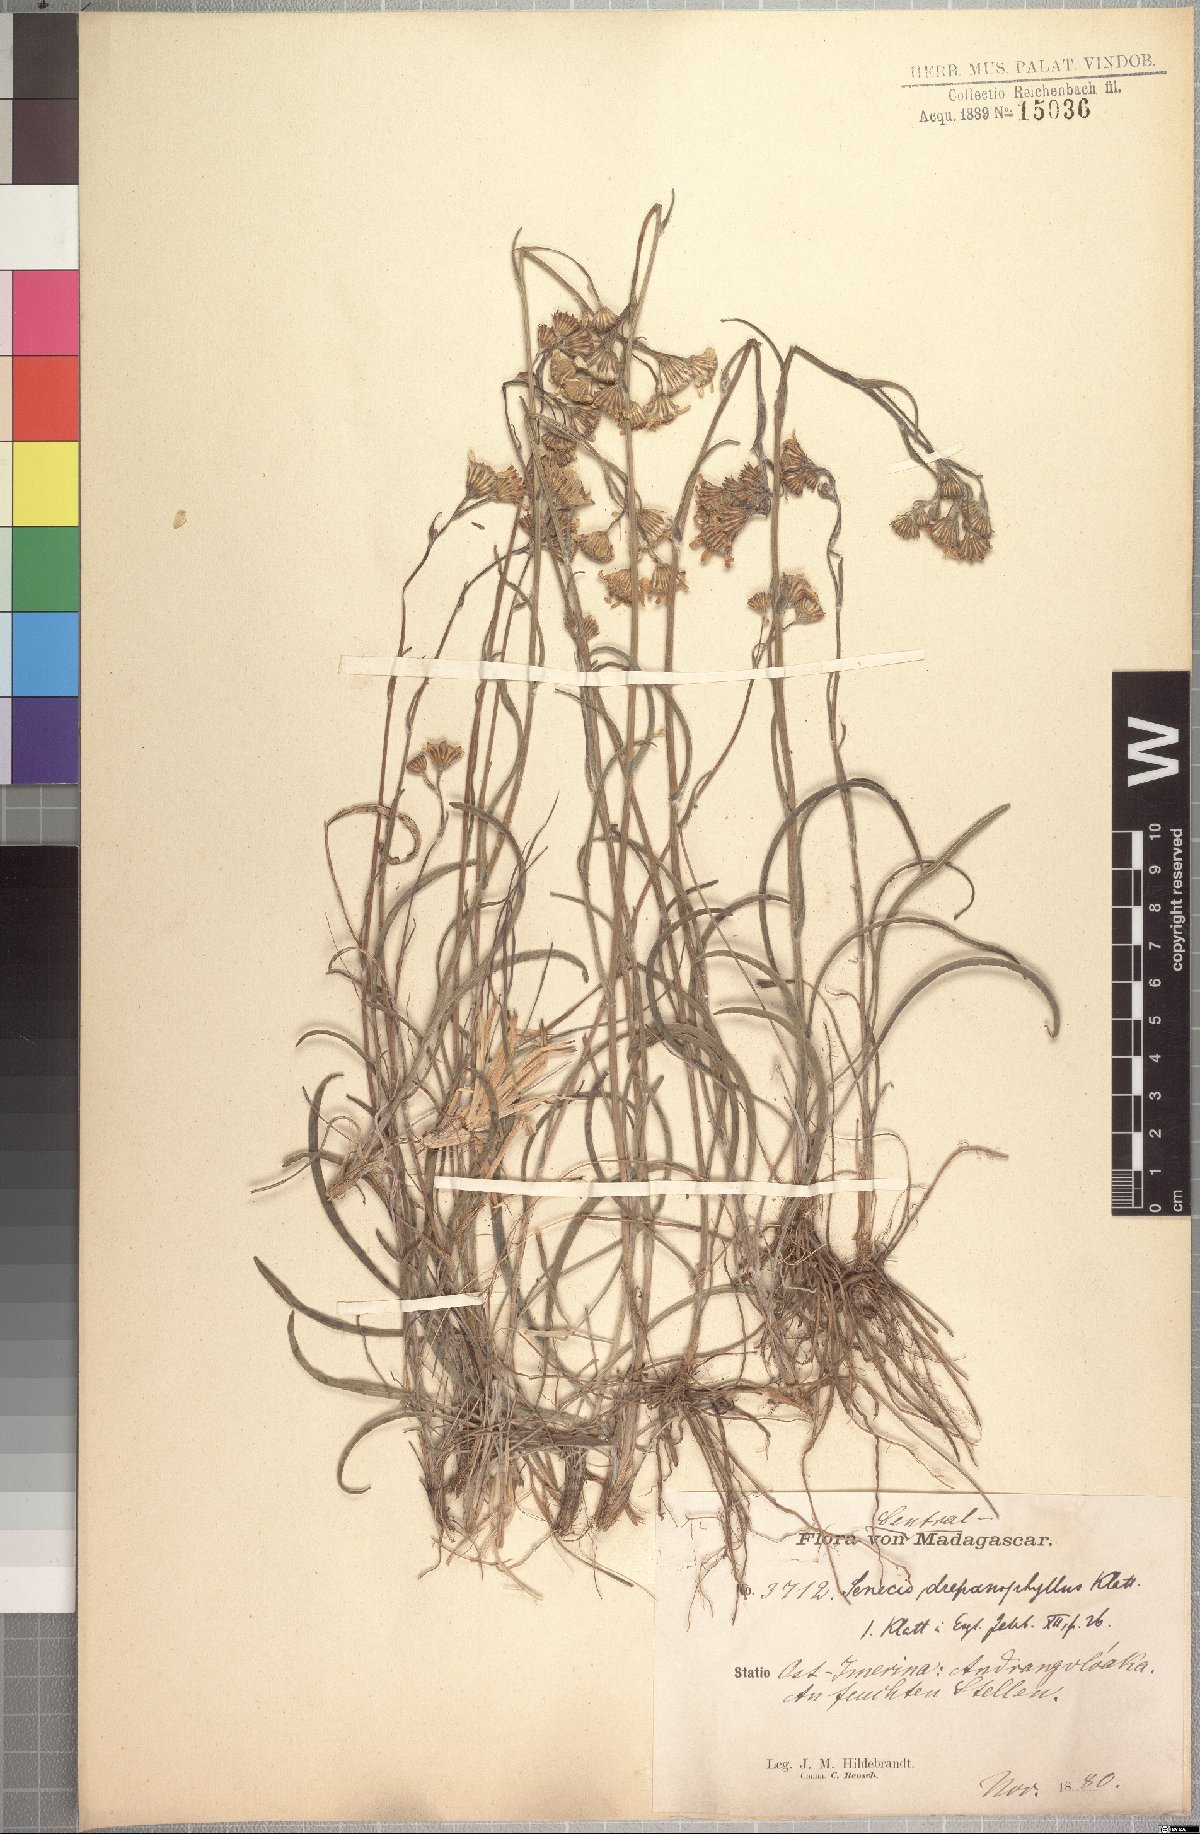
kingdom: Plantae
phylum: Tracheophyta
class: Magnoliopsida
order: Asterales
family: Asteraceae
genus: Senecio
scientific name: Senecio emirnensis
